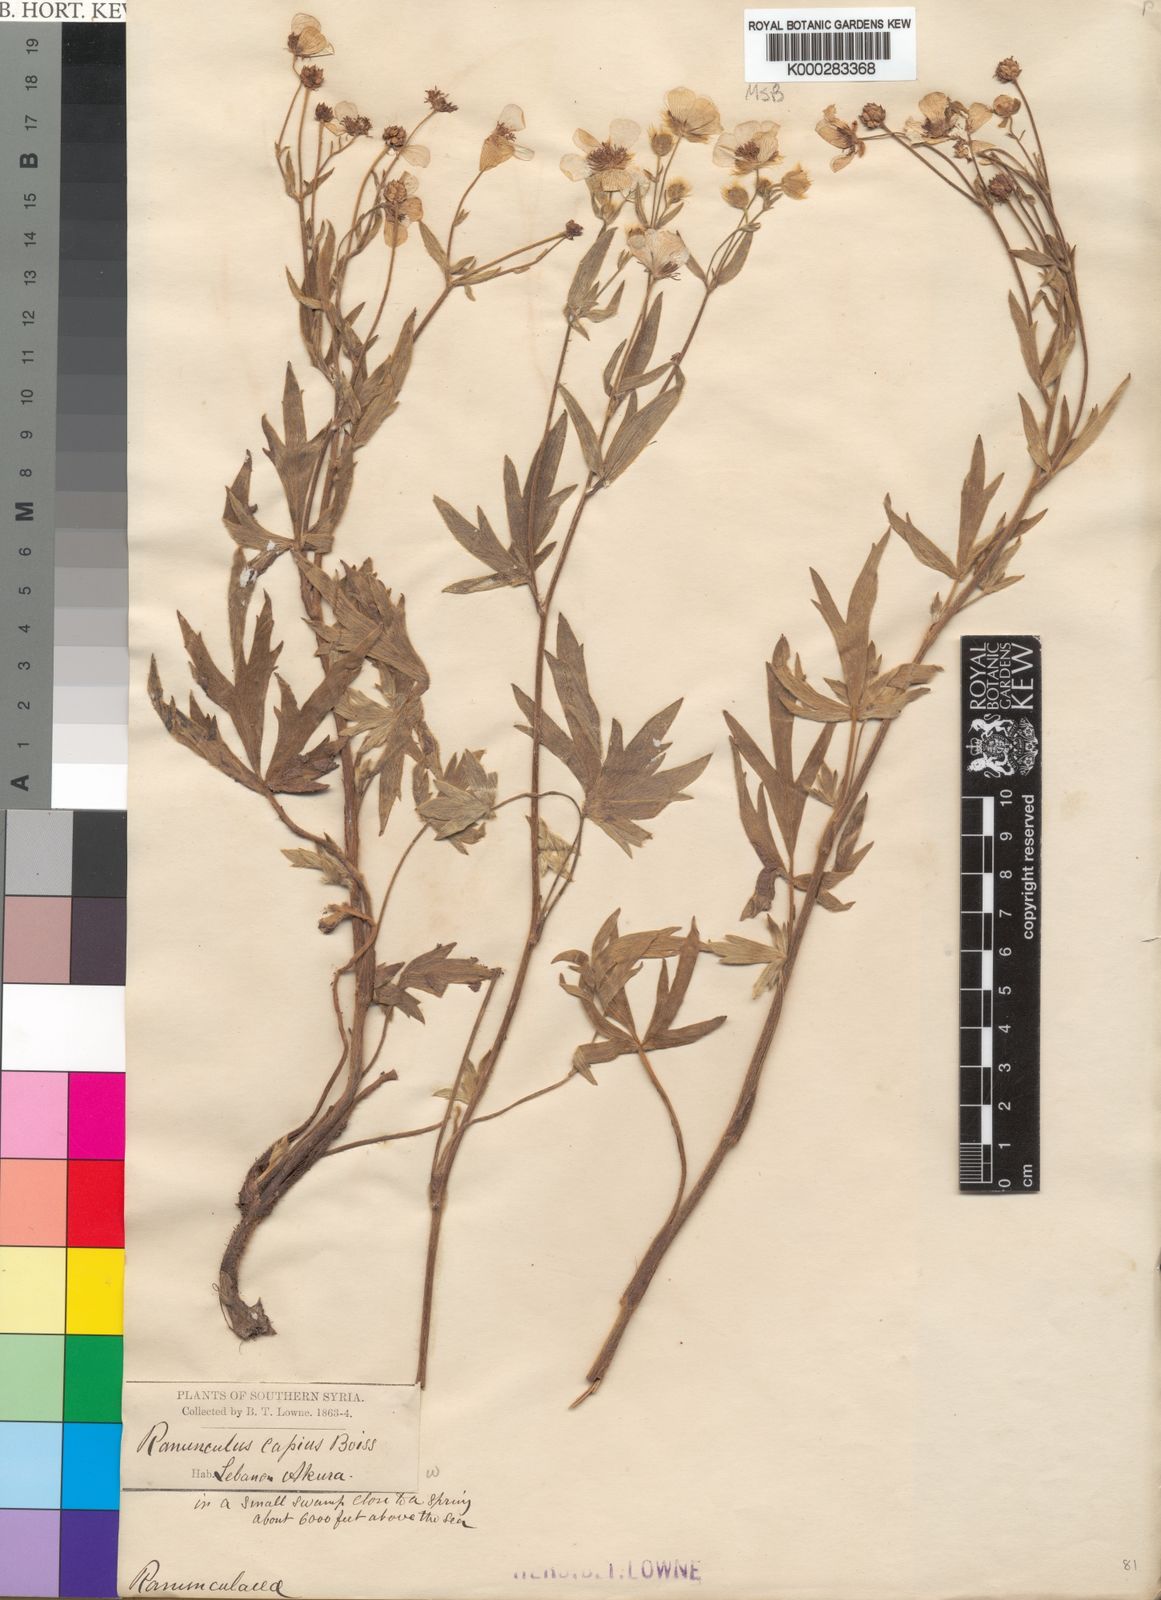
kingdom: Plantae
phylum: Tracheophyta
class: Magnoliopsida
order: Ranunculales
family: Ranunculaceae
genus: Ranunculus
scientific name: Ranunculus sericeus
